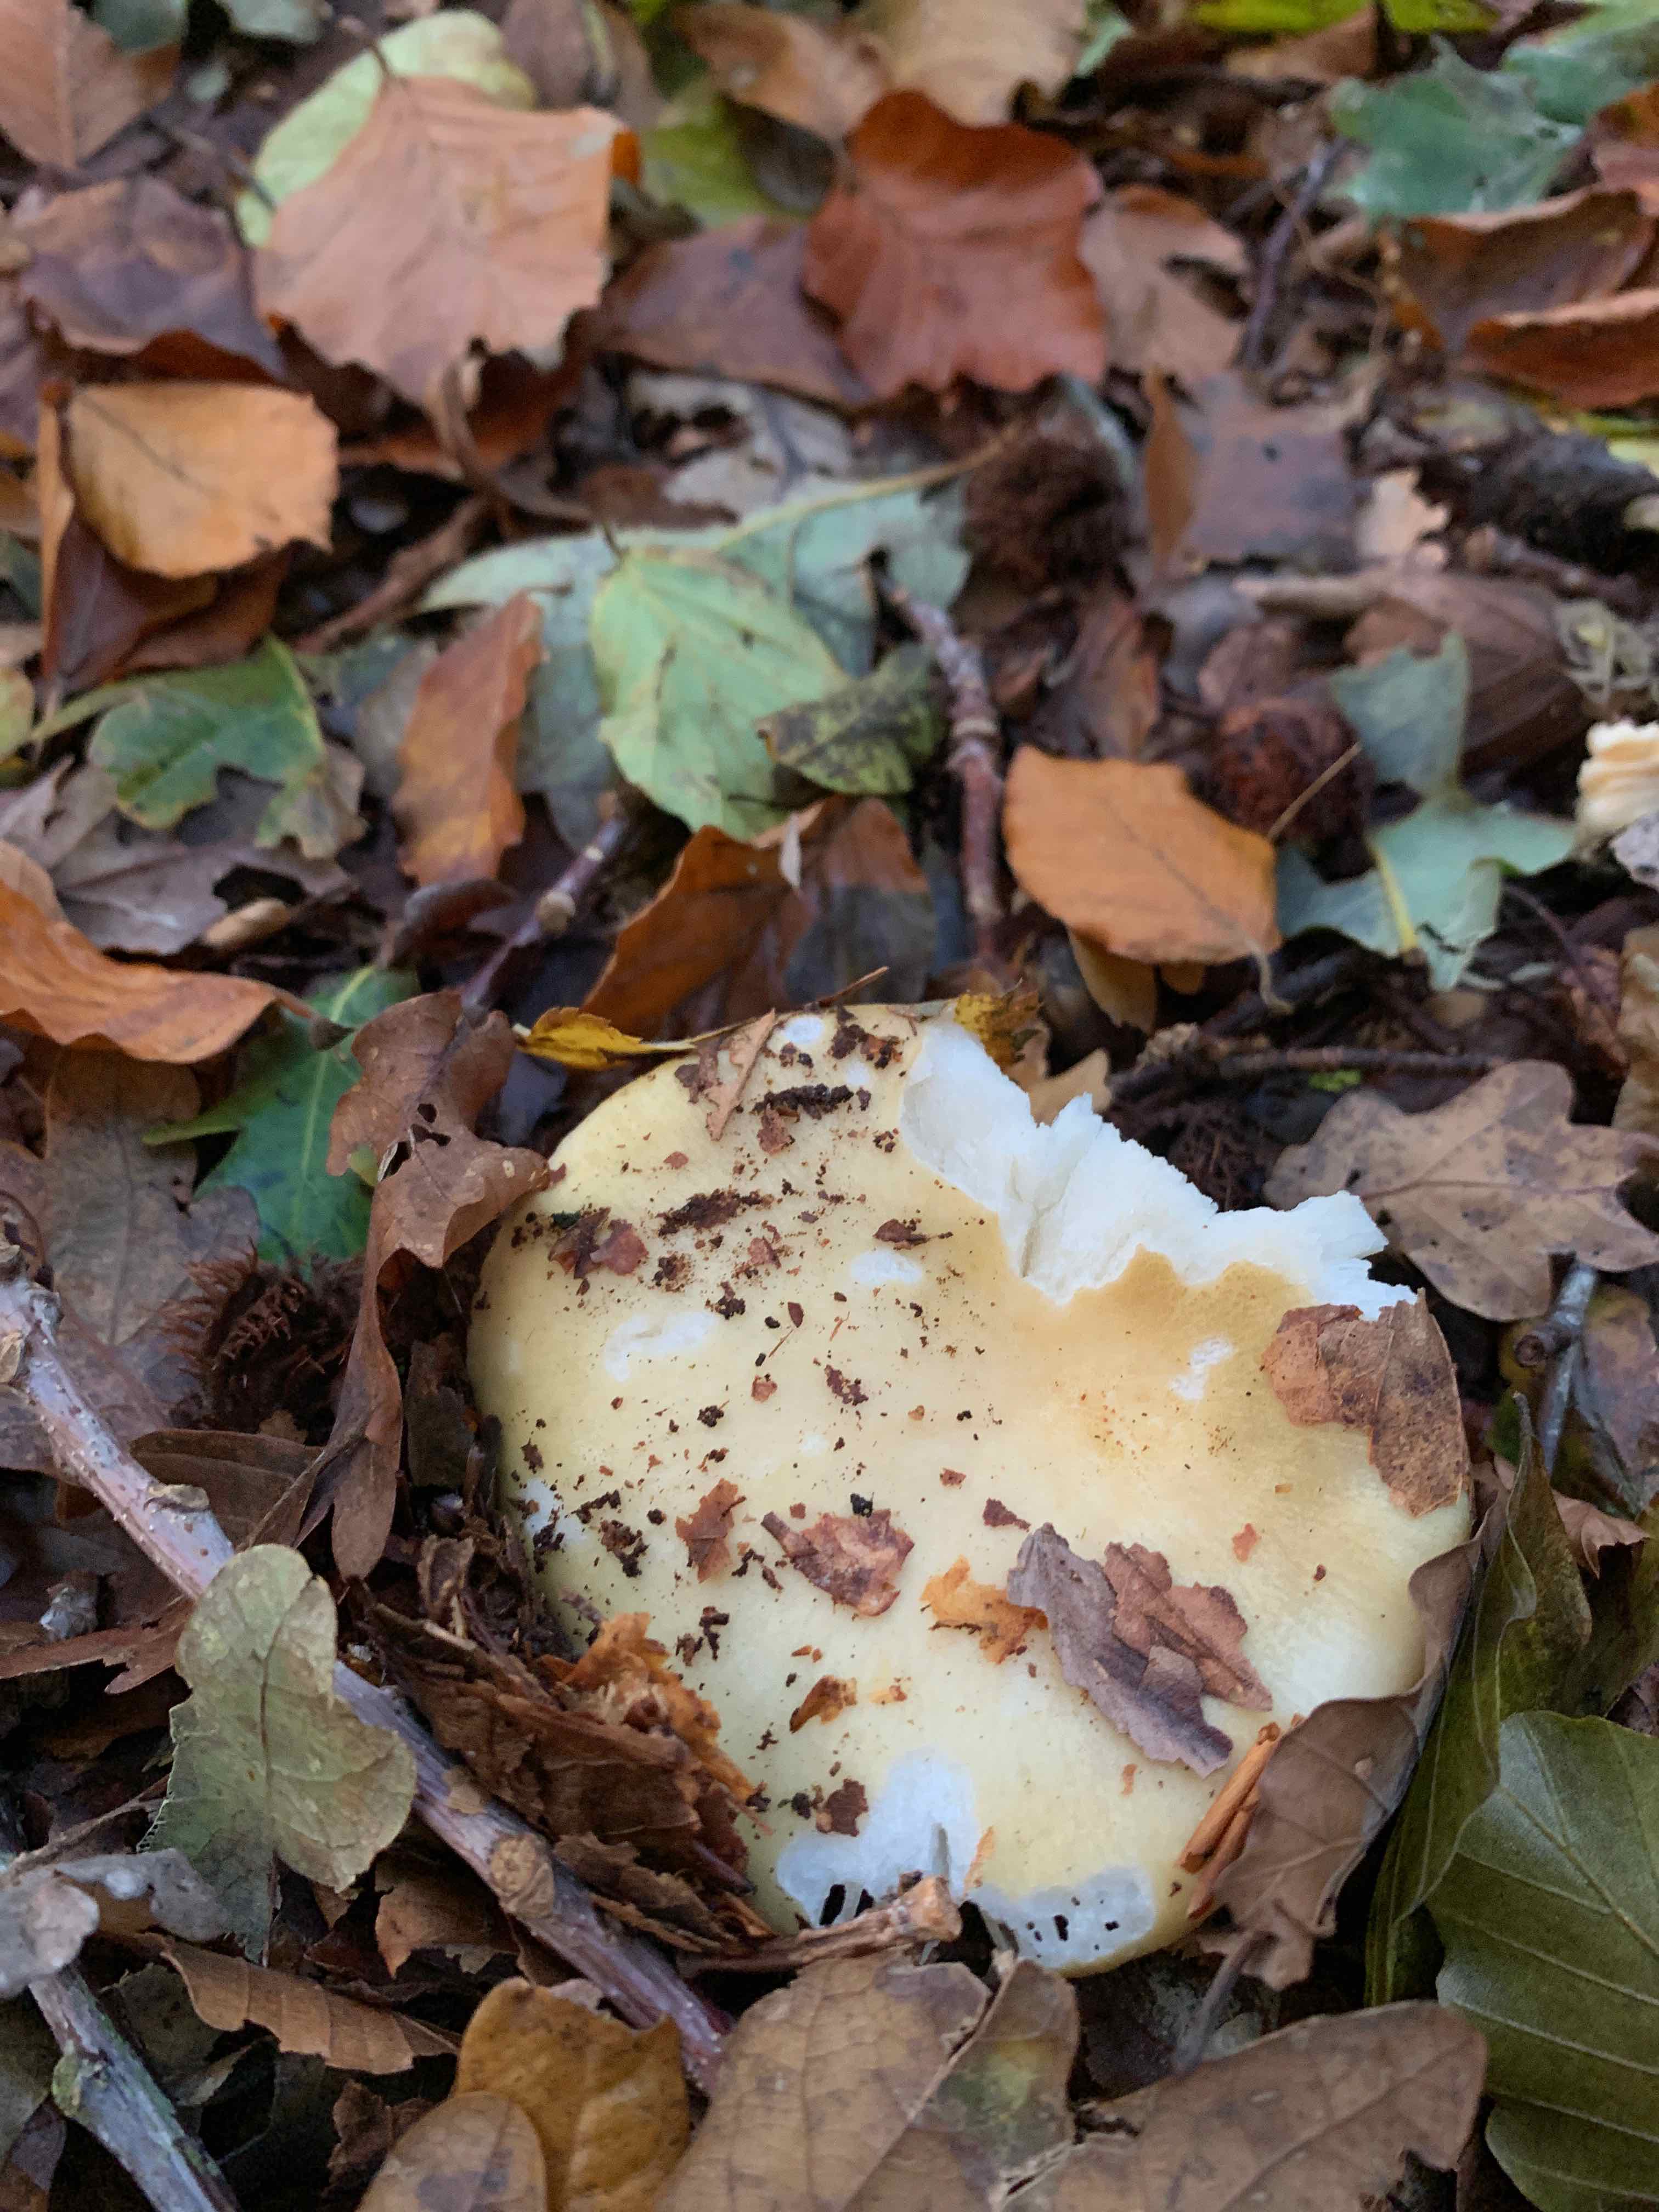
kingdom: Fungi
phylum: Basidiomycota
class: Agaricomycetes
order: Russulales
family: Russulaceae
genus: Russula
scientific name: Russula ochroleuca
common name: okkergul skørhat
